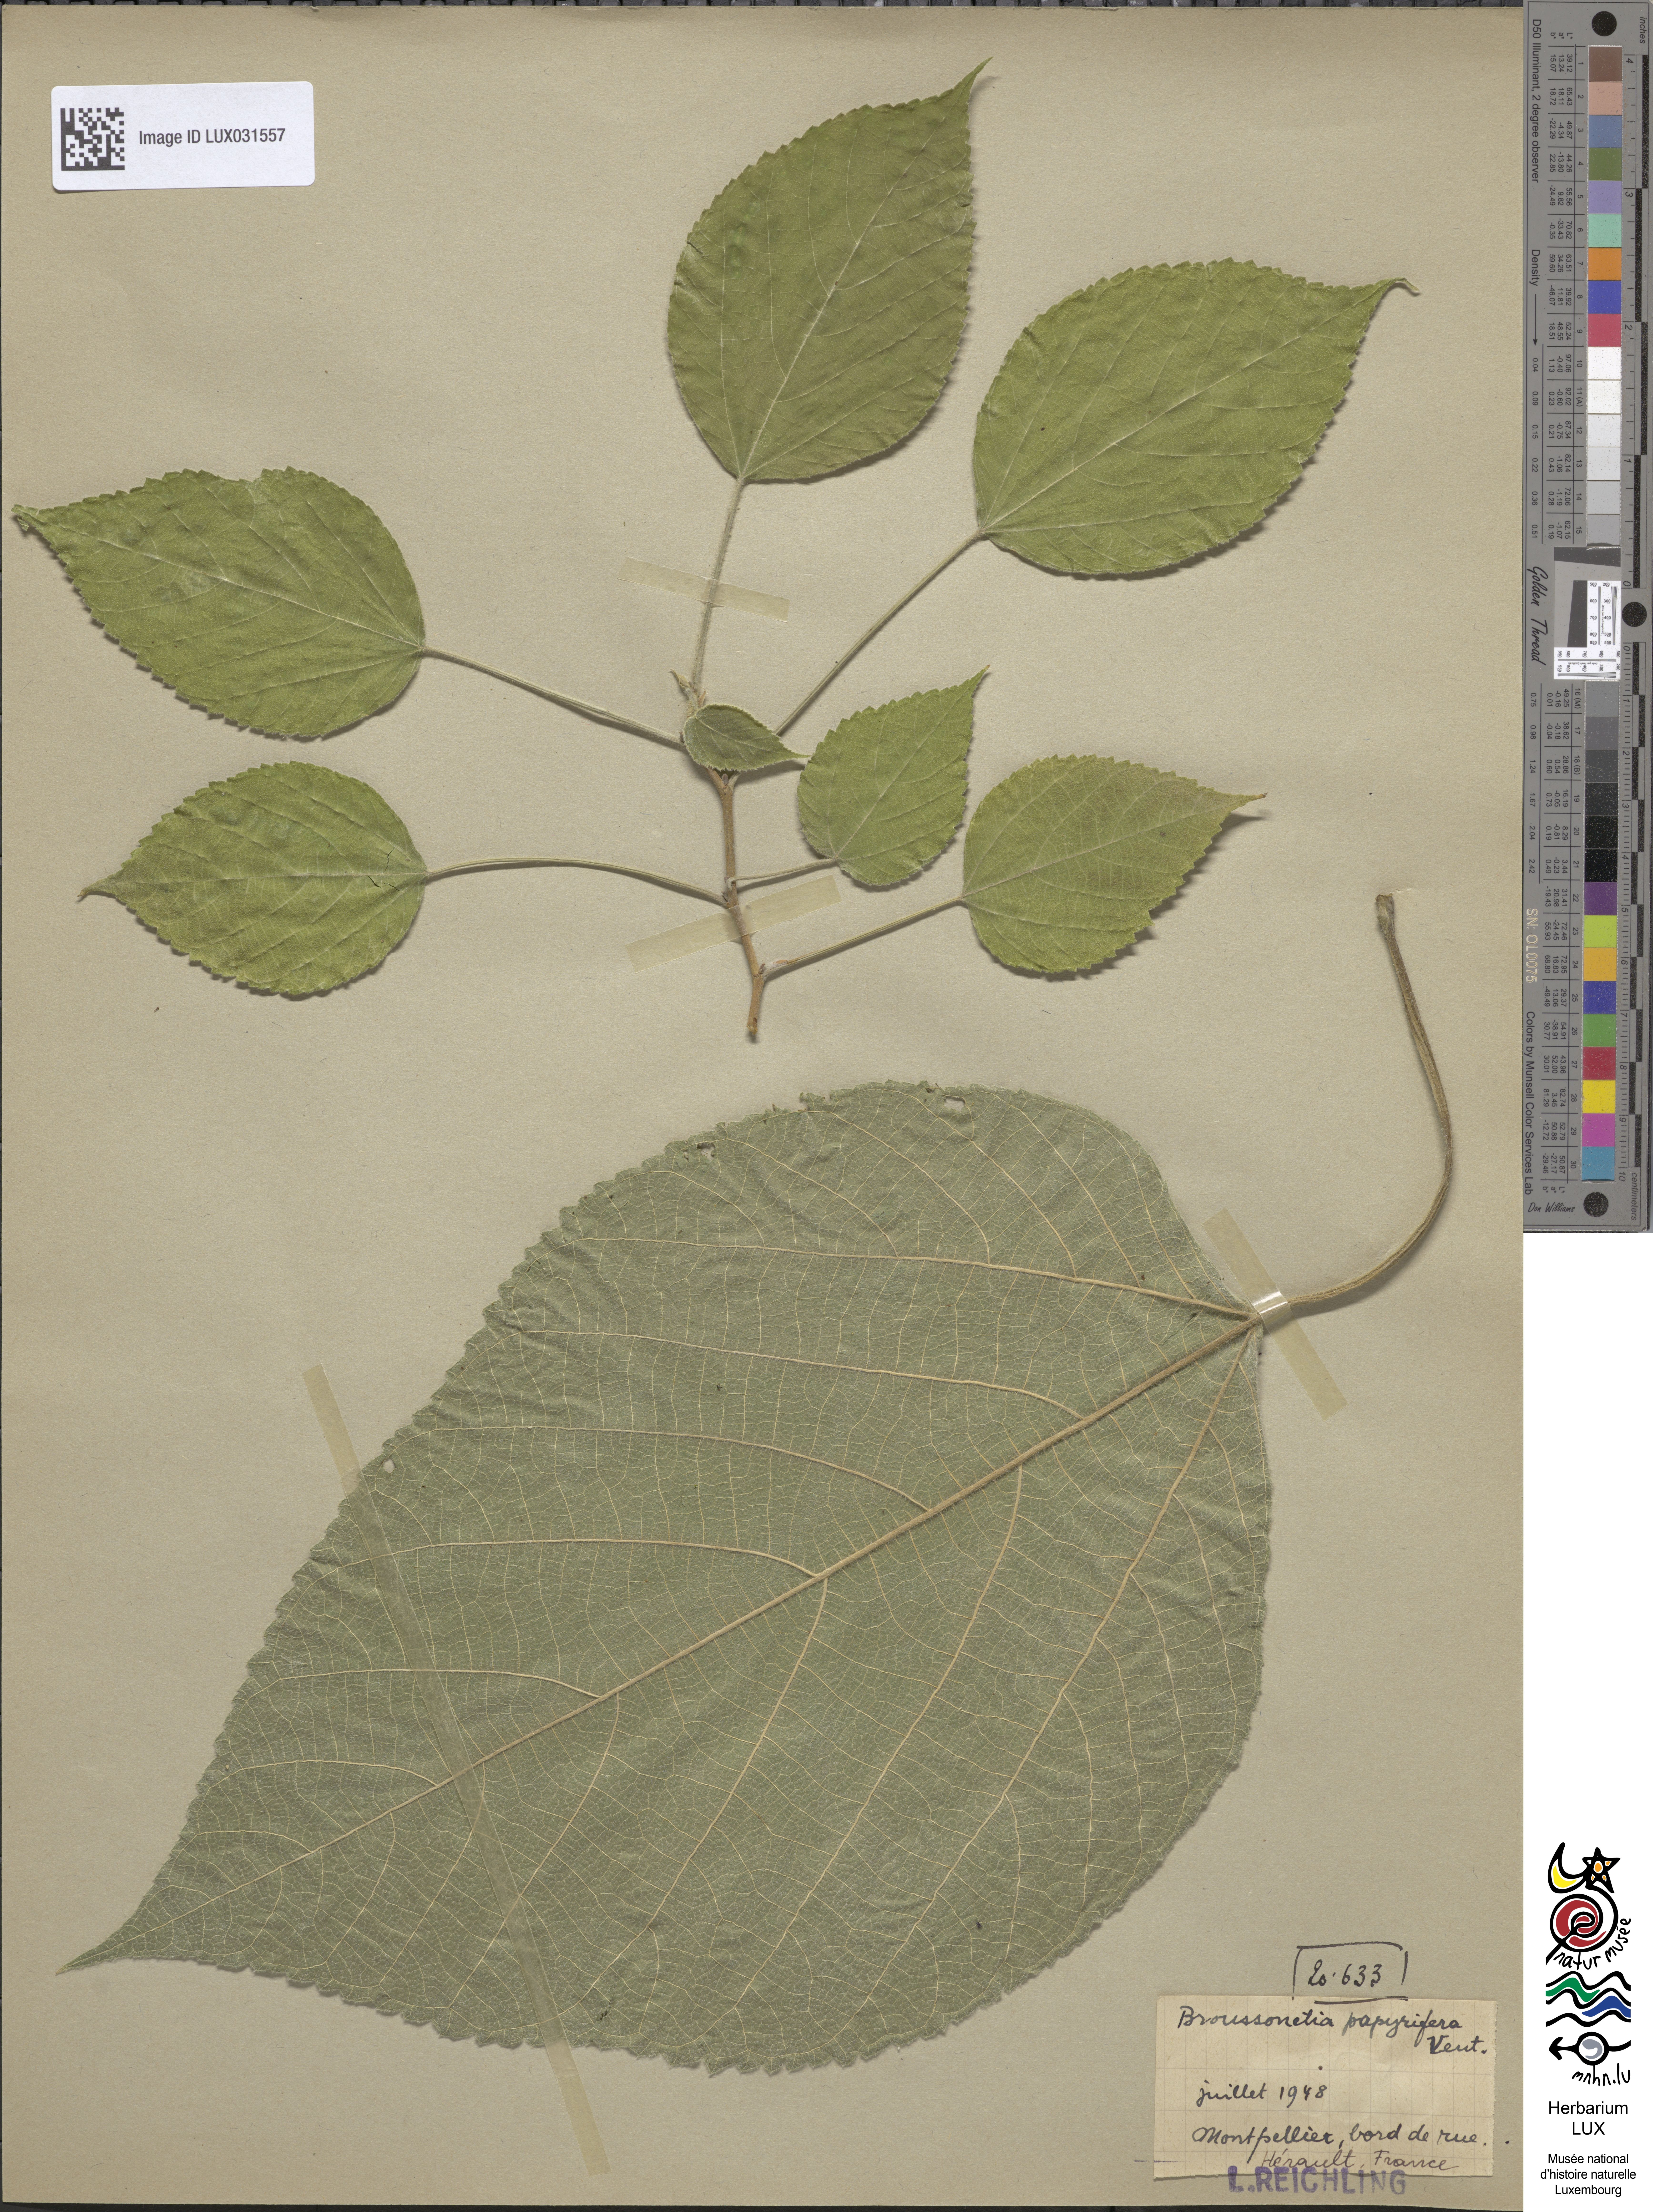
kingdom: Plantae
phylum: Tracheophyta
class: Magnoliopsida
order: Rosales
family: Moraceae
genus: Broussonetia
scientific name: Broussonetia papyrifera
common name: Paper mulberry
